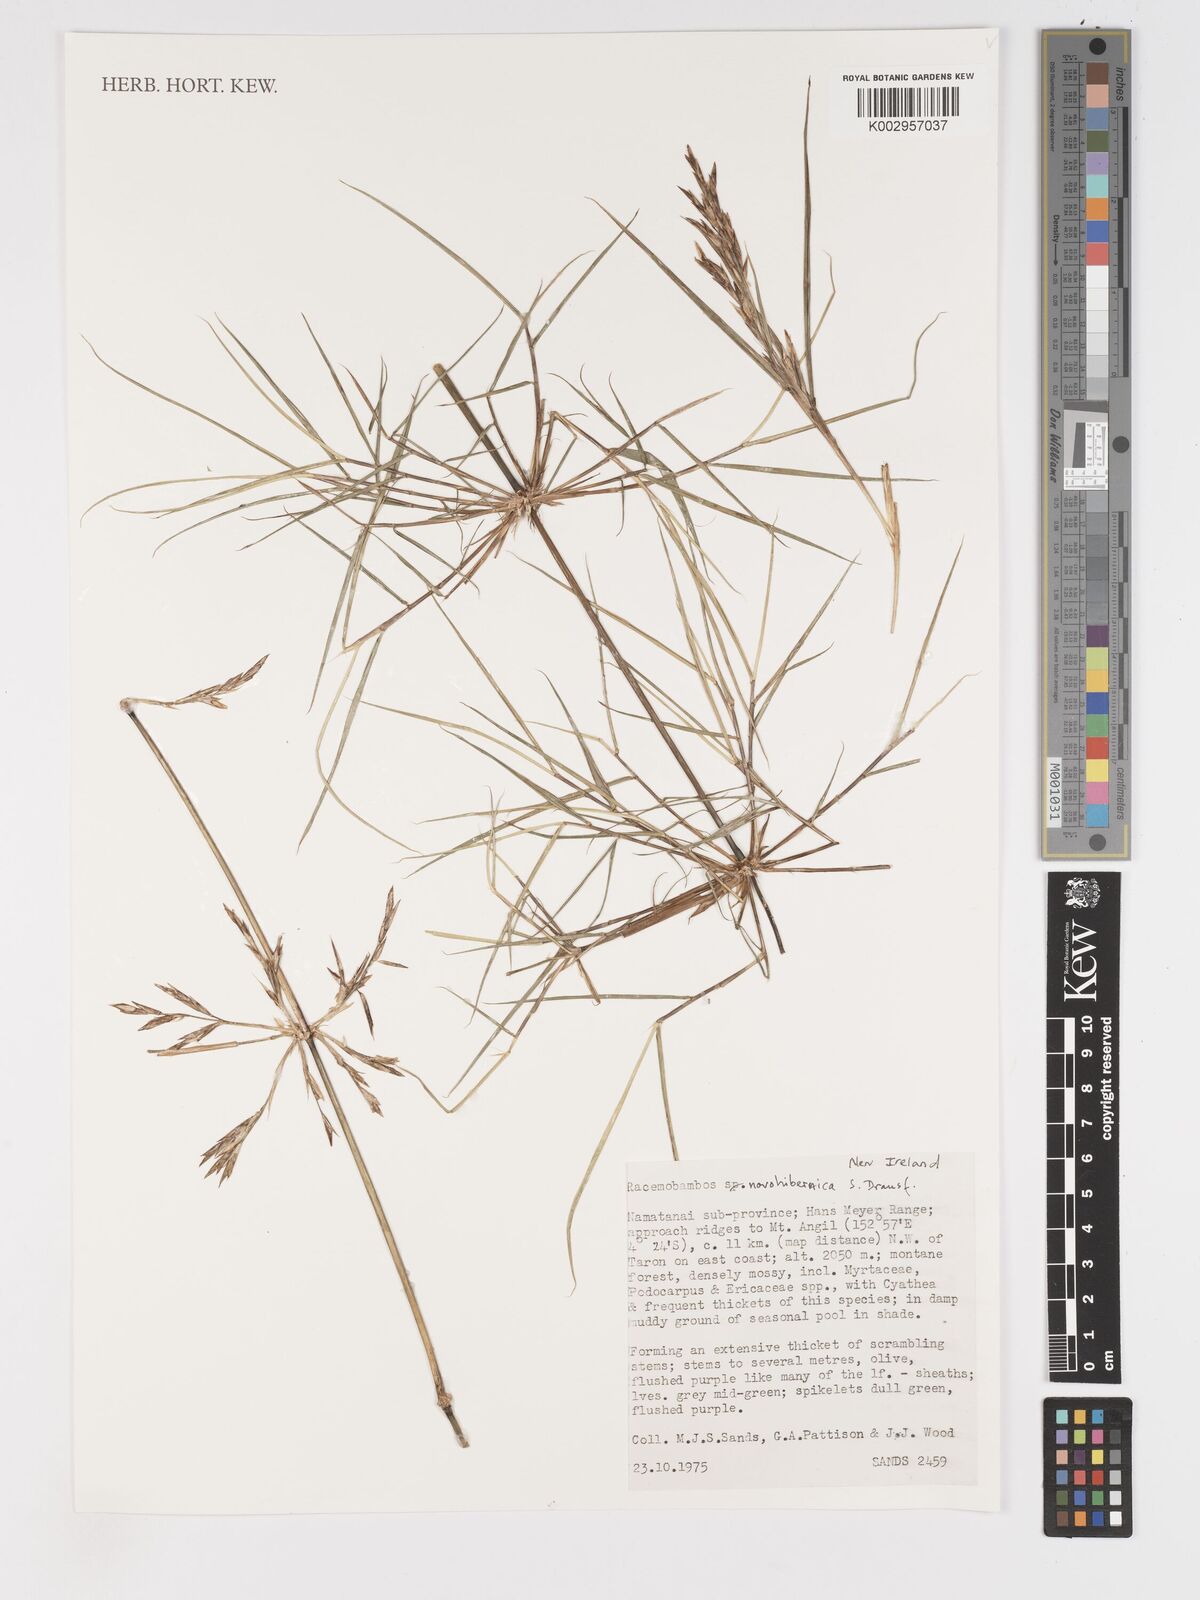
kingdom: Plantae
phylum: Tracheophyta
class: Liliopsida
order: Poales
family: Poaceae
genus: Racemobambos
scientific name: Racemobambos novohibernica
